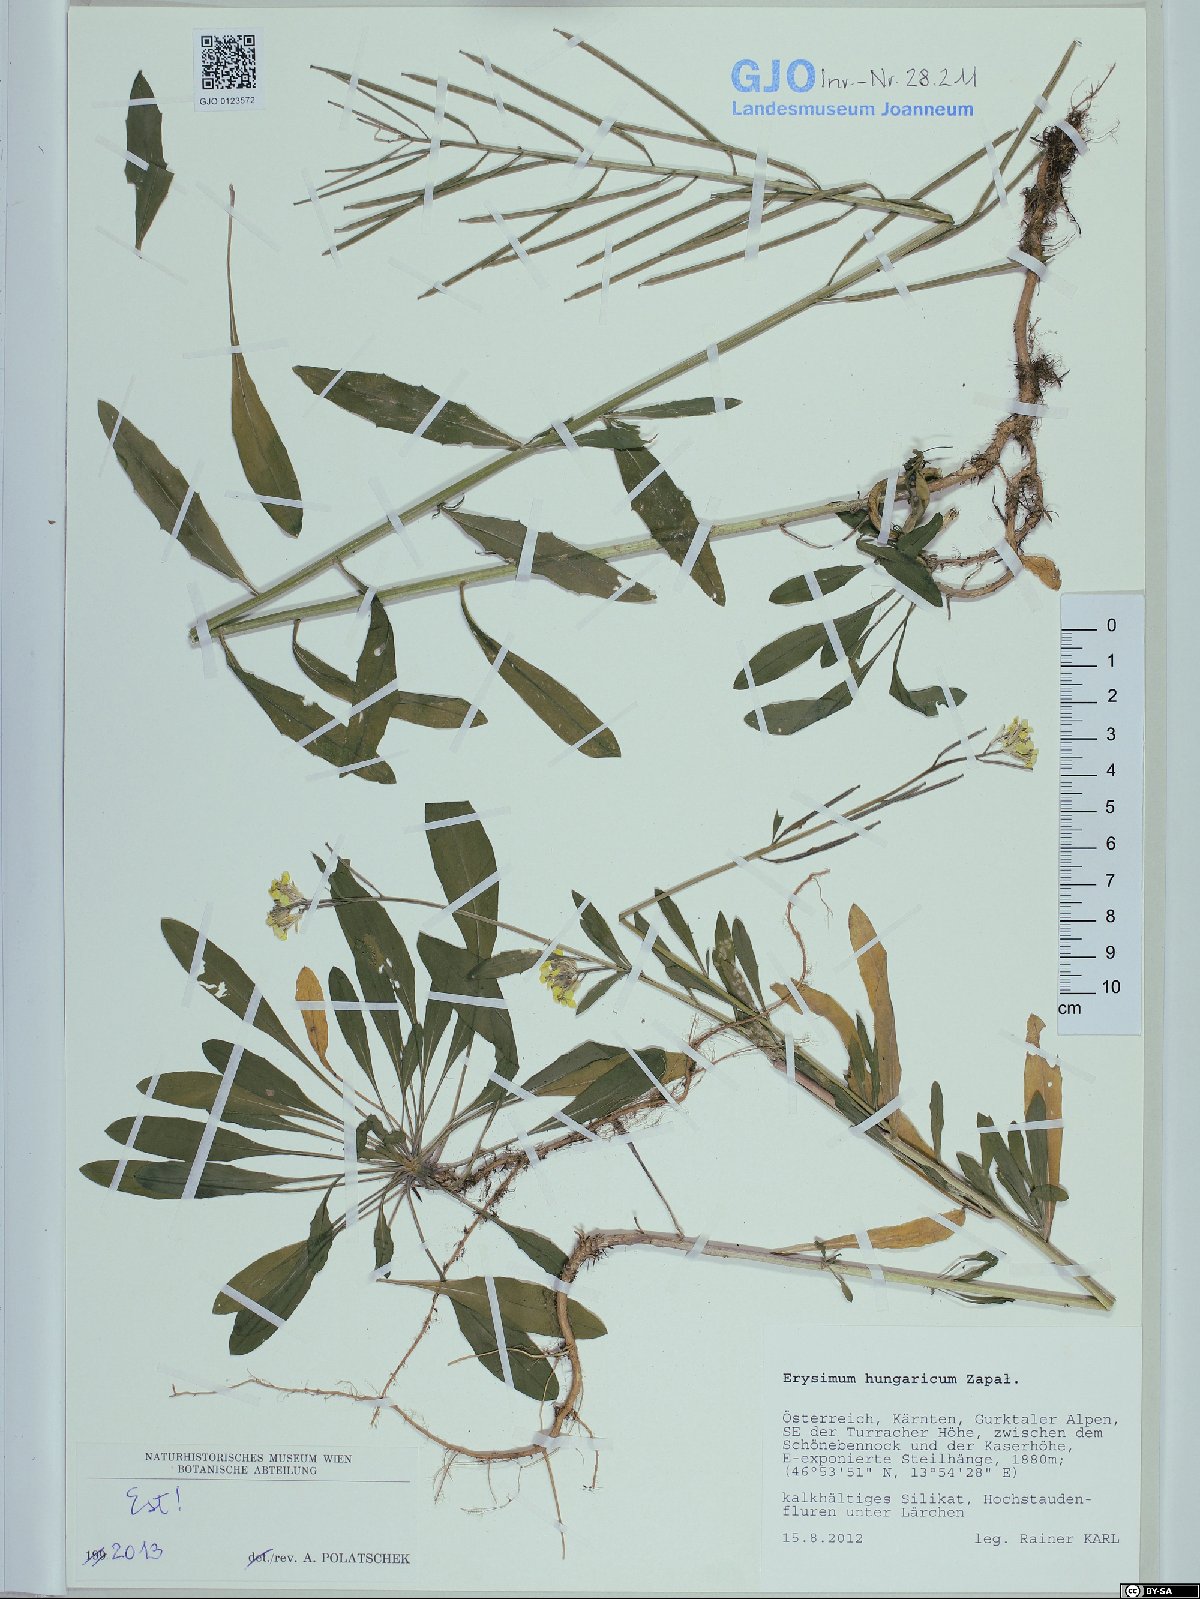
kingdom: Plantae
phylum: Tracheophyta
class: Magnoliopsida
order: Brassicales
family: Brassicaceae
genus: Erysimum
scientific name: Erysimum hungaricum
